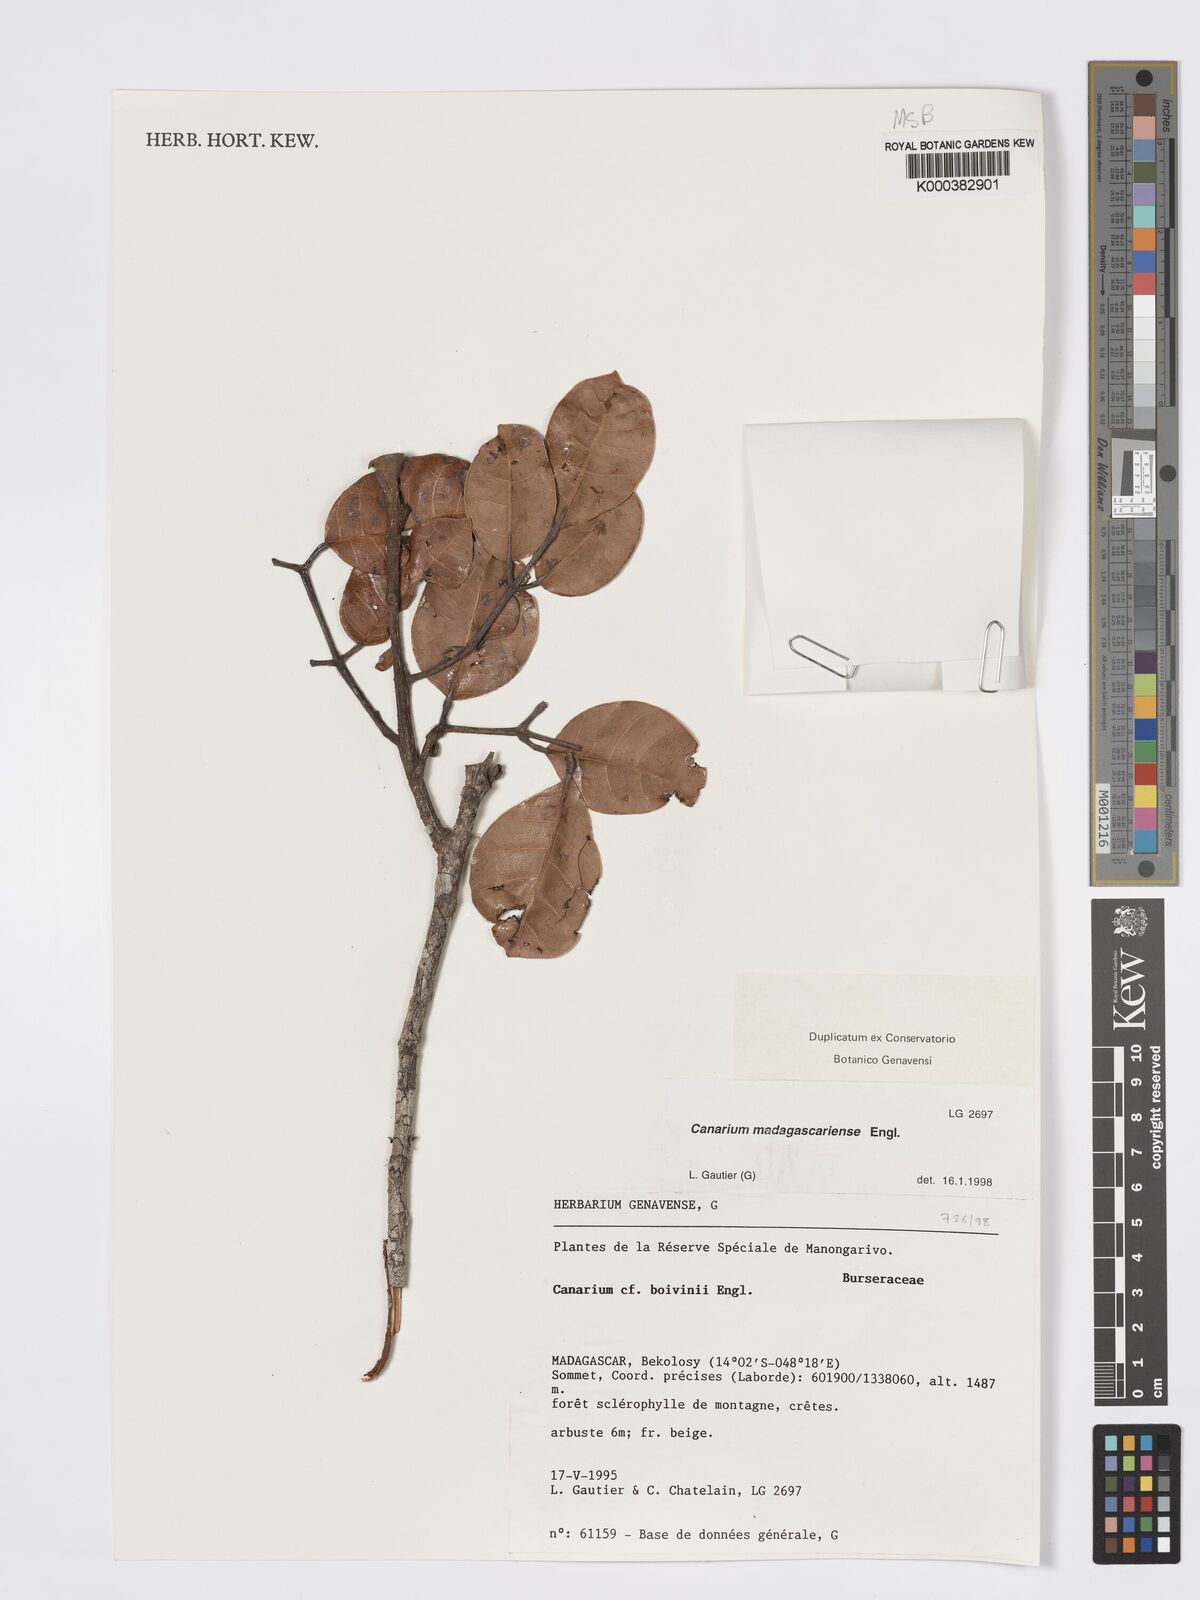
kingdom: Plantae
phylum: Tracheophyta
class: Magnoliopsida
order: Sapindales
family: Burseraceae
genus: Canarium
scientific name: Canarium madagascariense
